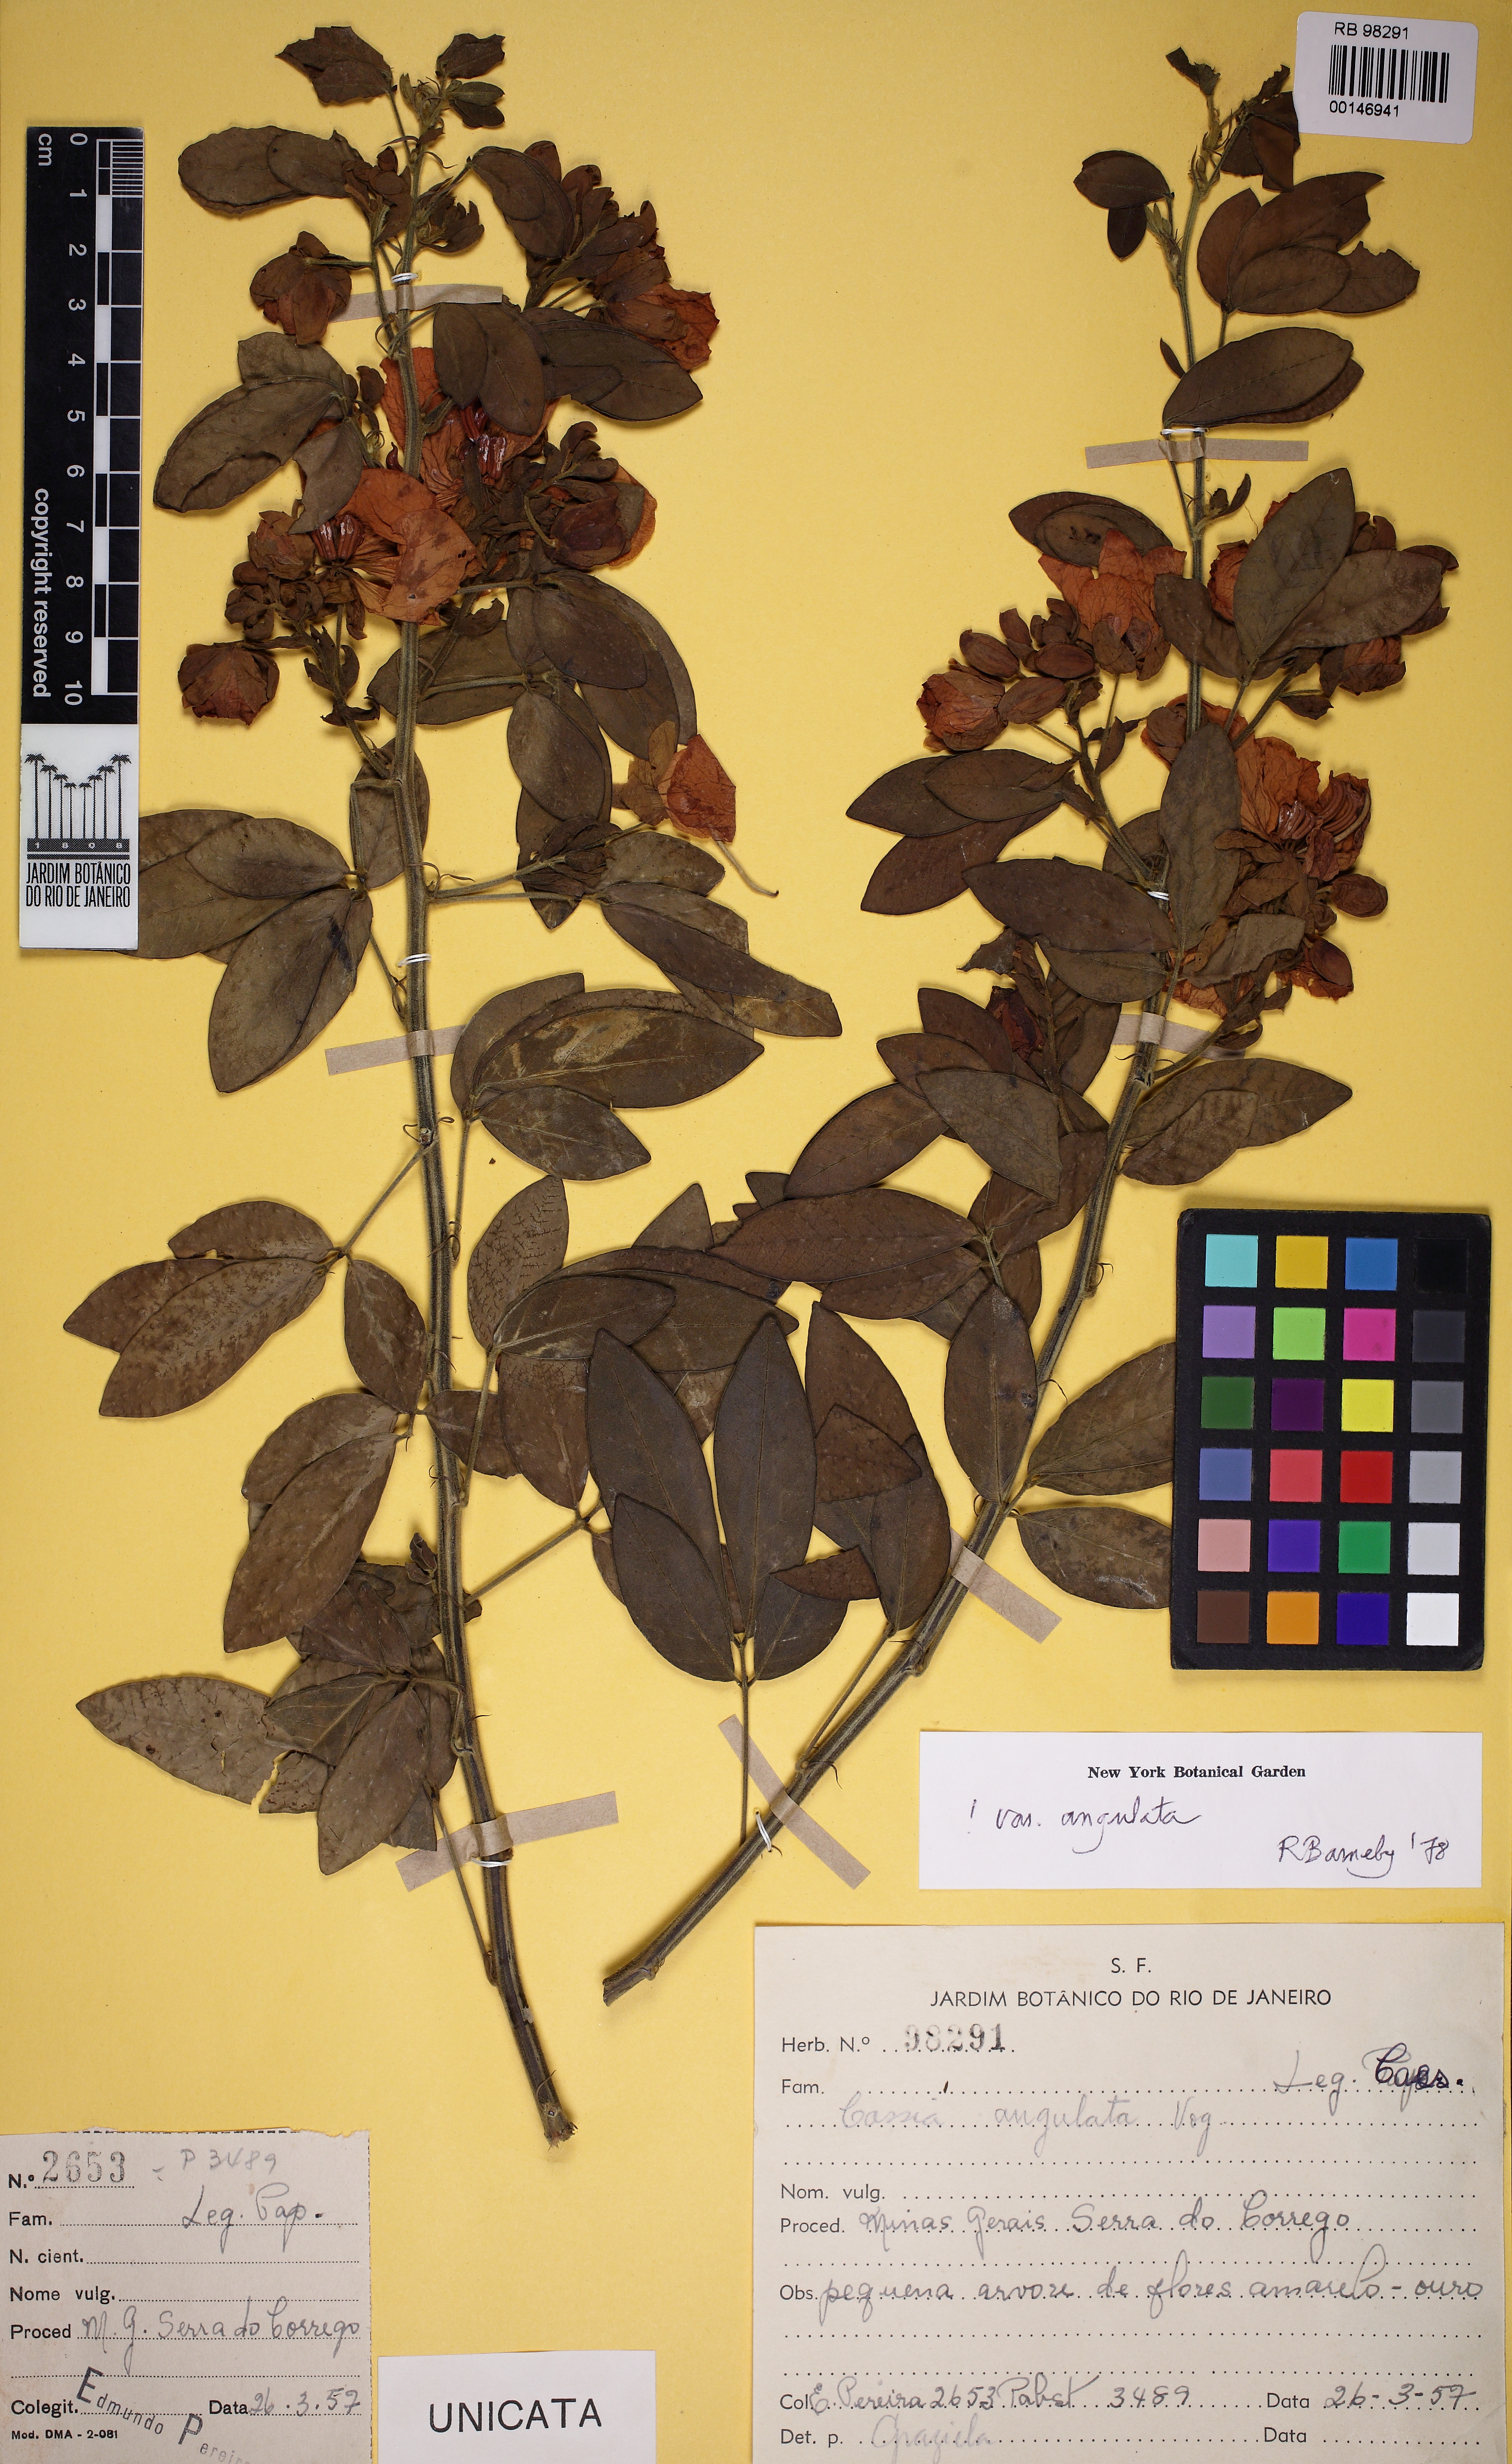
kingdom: Plantae
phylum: Tracheophyta
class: Magnoliopsida
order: Fabales
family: Fabaceae
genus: Senna
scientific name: Senna angulata
